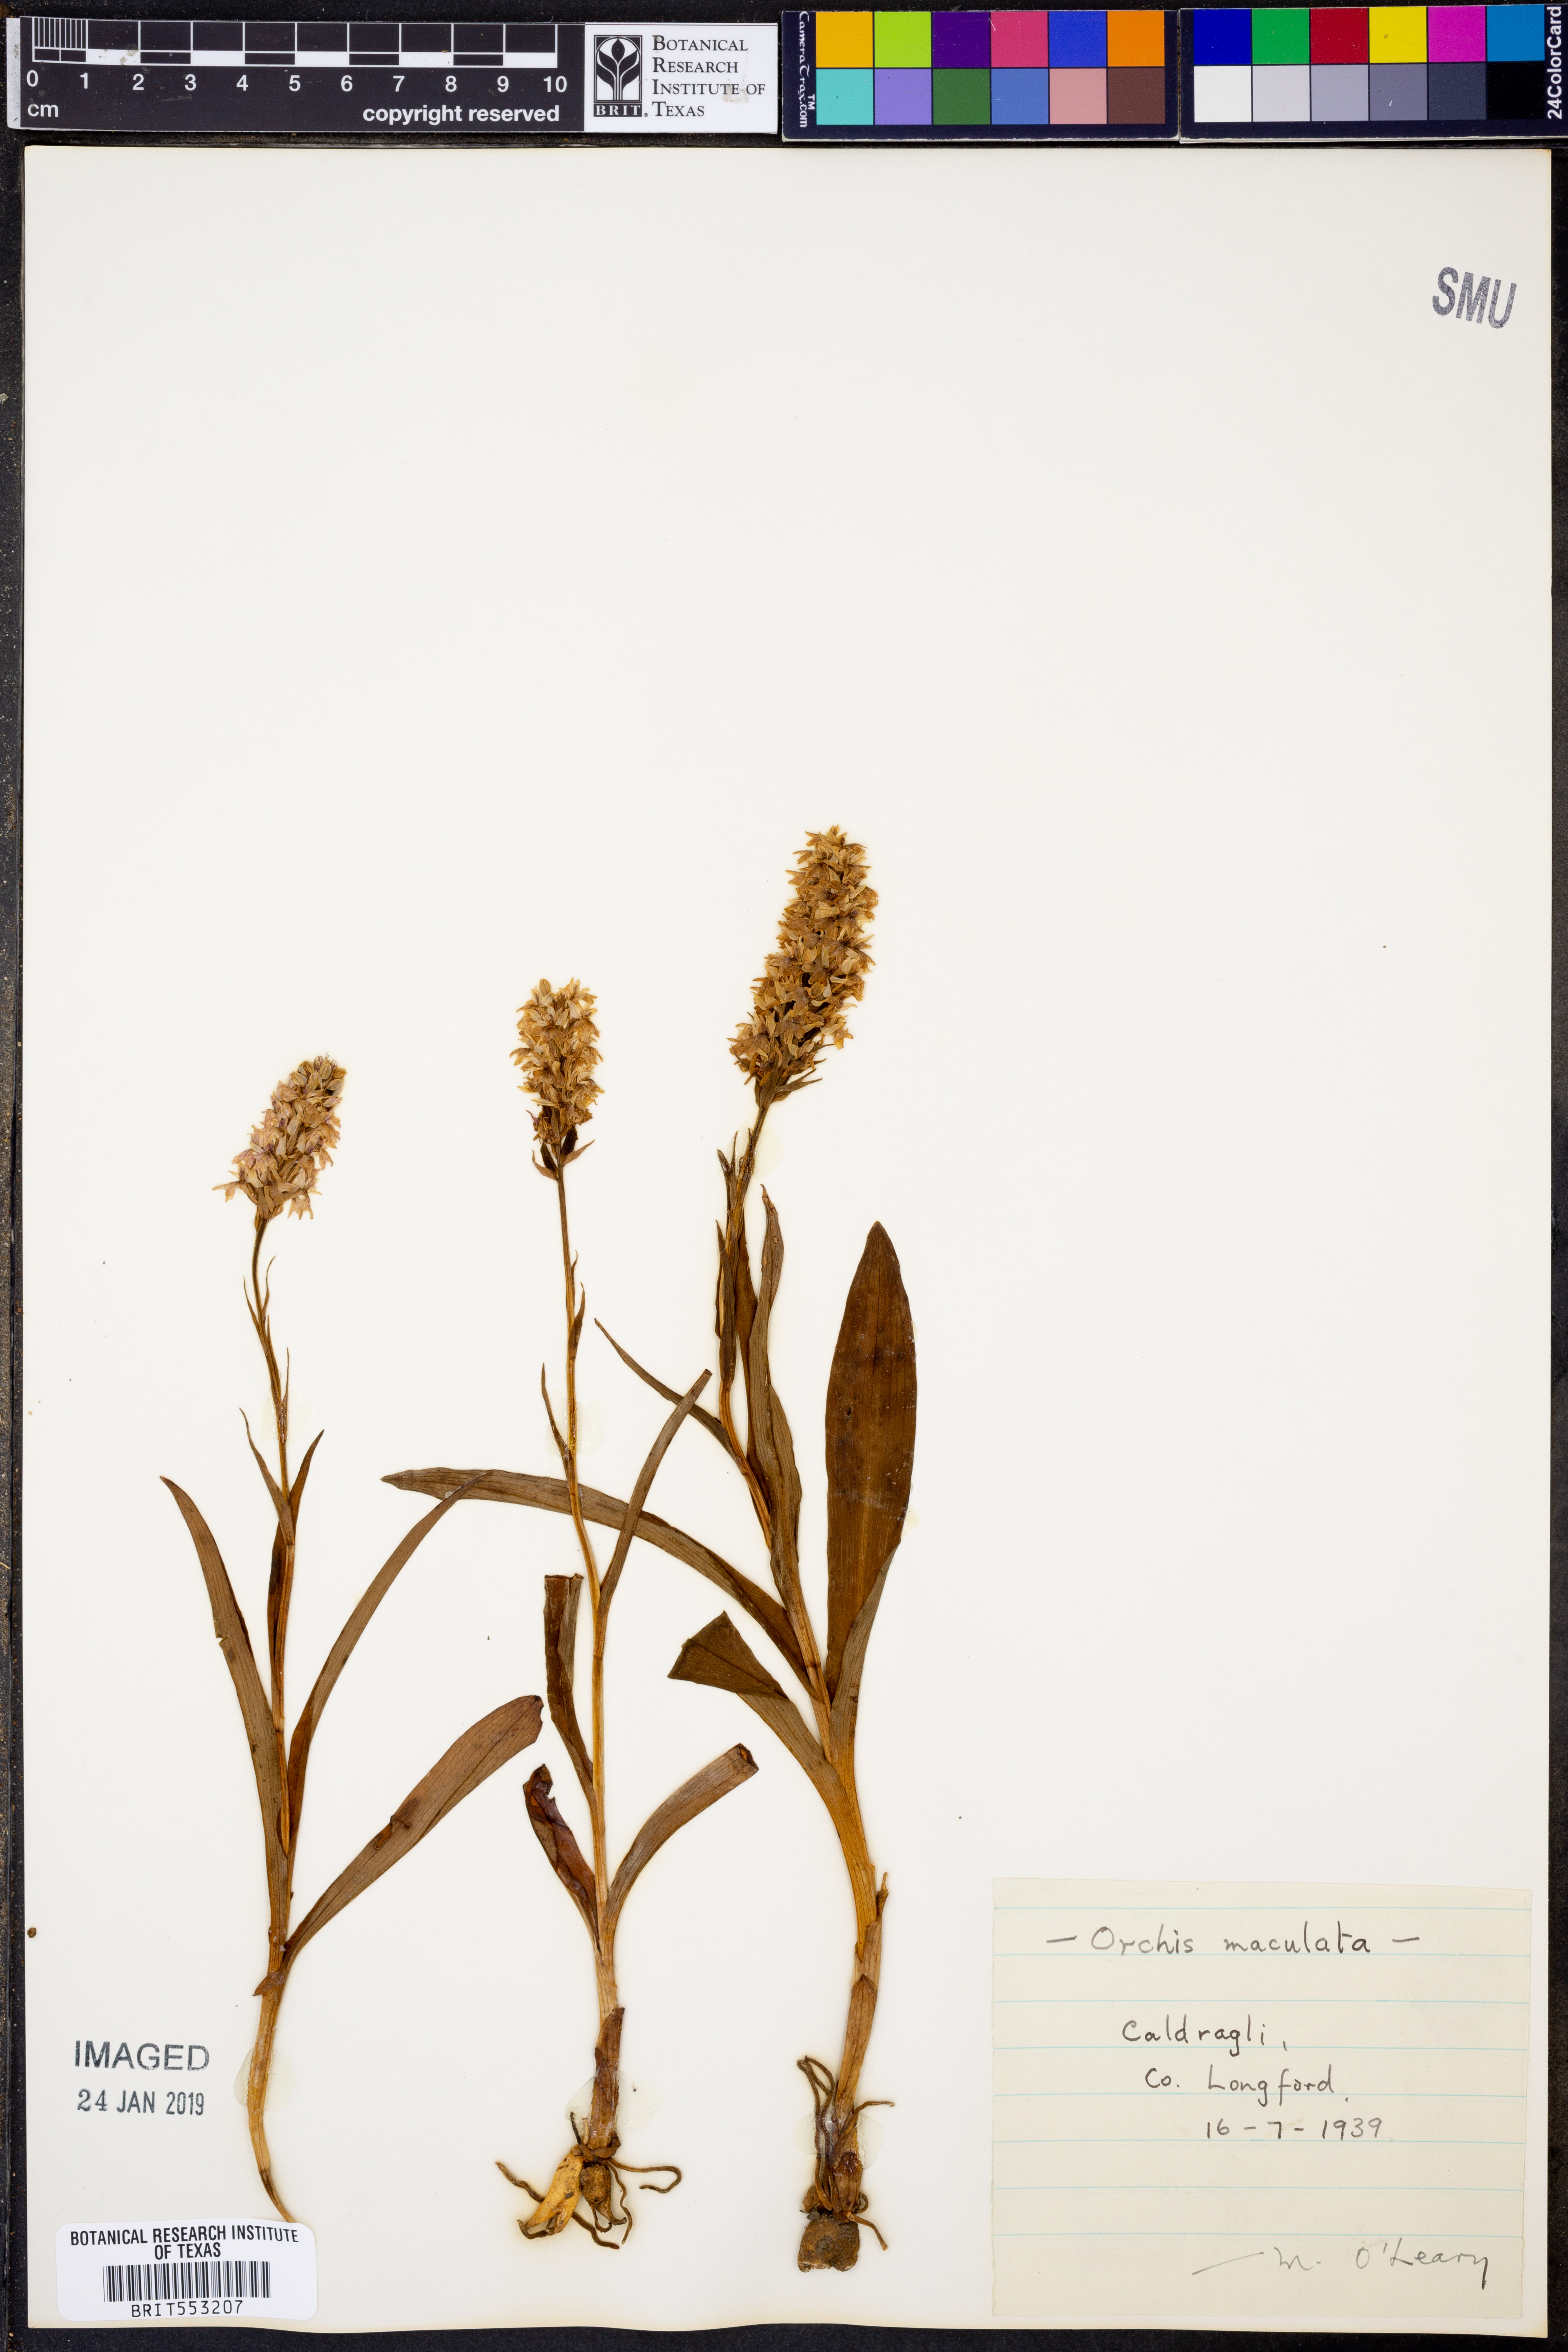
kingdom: Plantae
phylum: Tracheophyta
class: Liliopsida
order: Asparagales
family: Orchidaceae
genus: Dactylorhiza
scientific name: Dactylorhiza maculata
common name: Heath spotted-orchid
